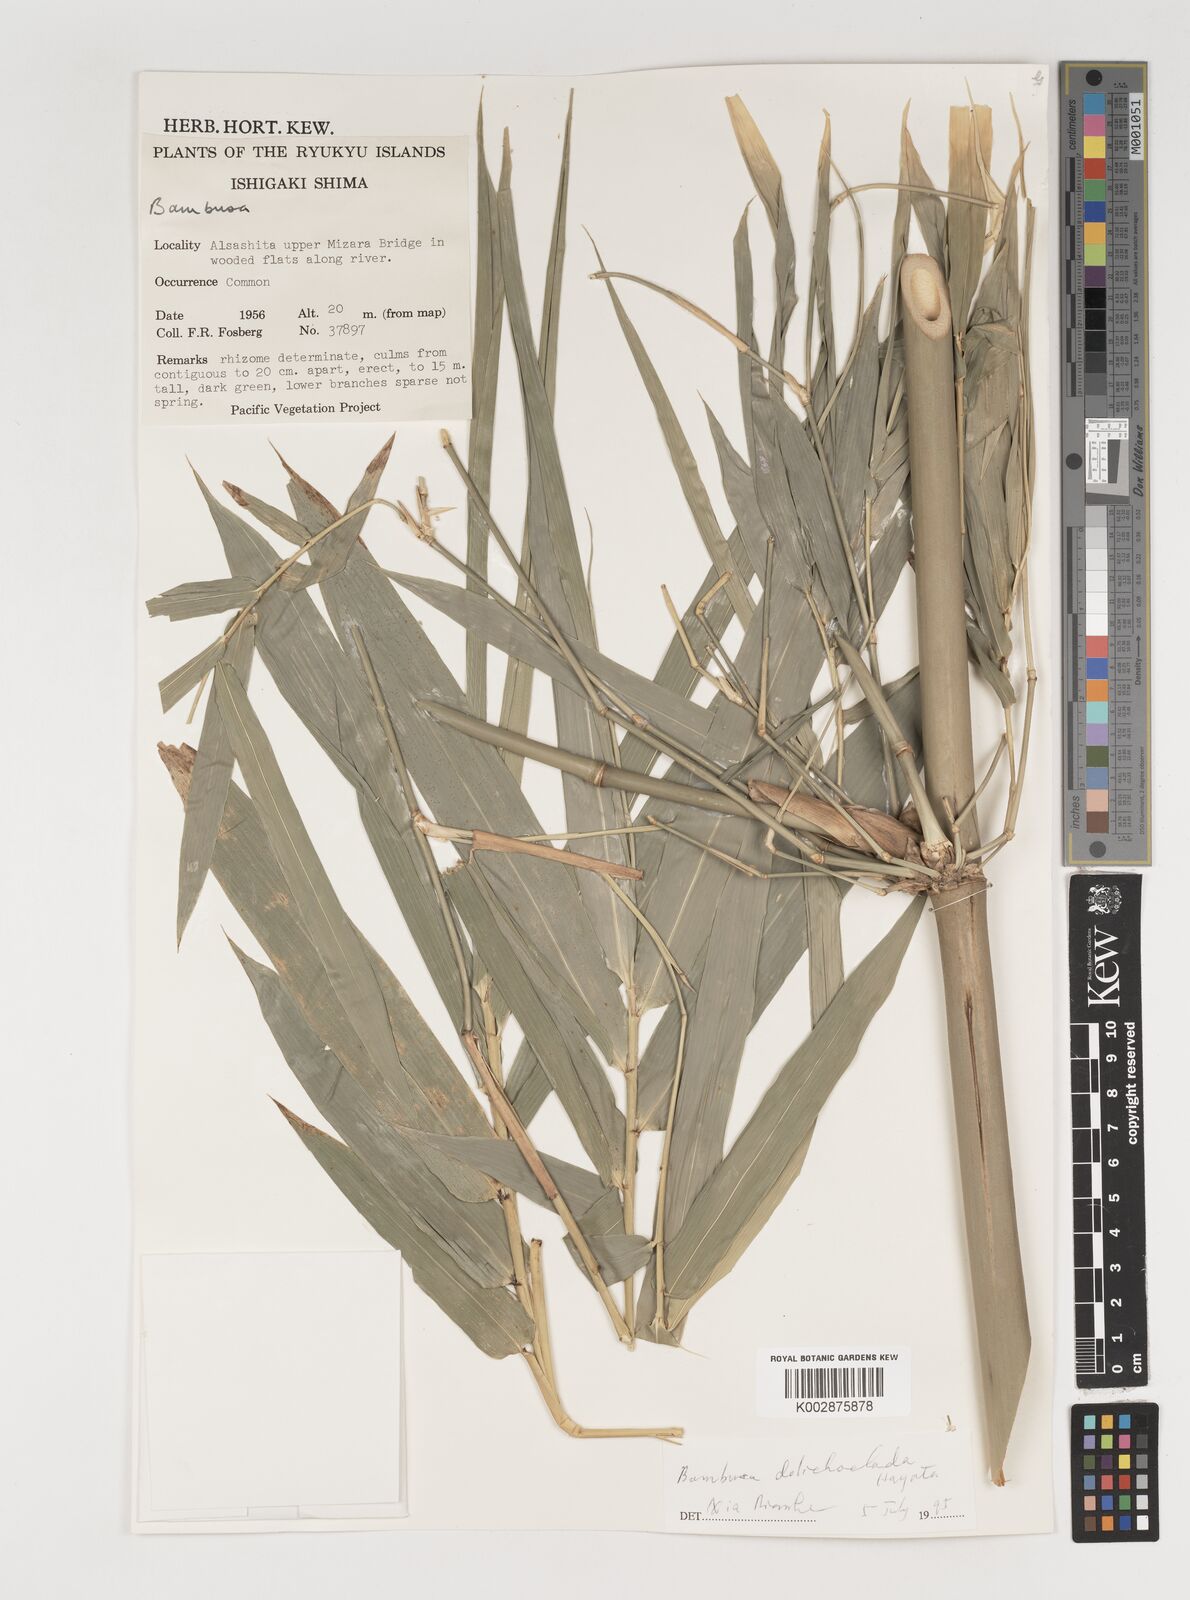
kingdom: Plantae
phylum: Tracheophyta
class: Liliopsida
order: Poales
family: Poaceae
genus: Bambusa
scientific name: Bambusa dolichoclada
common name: Long-shoot bamboo
